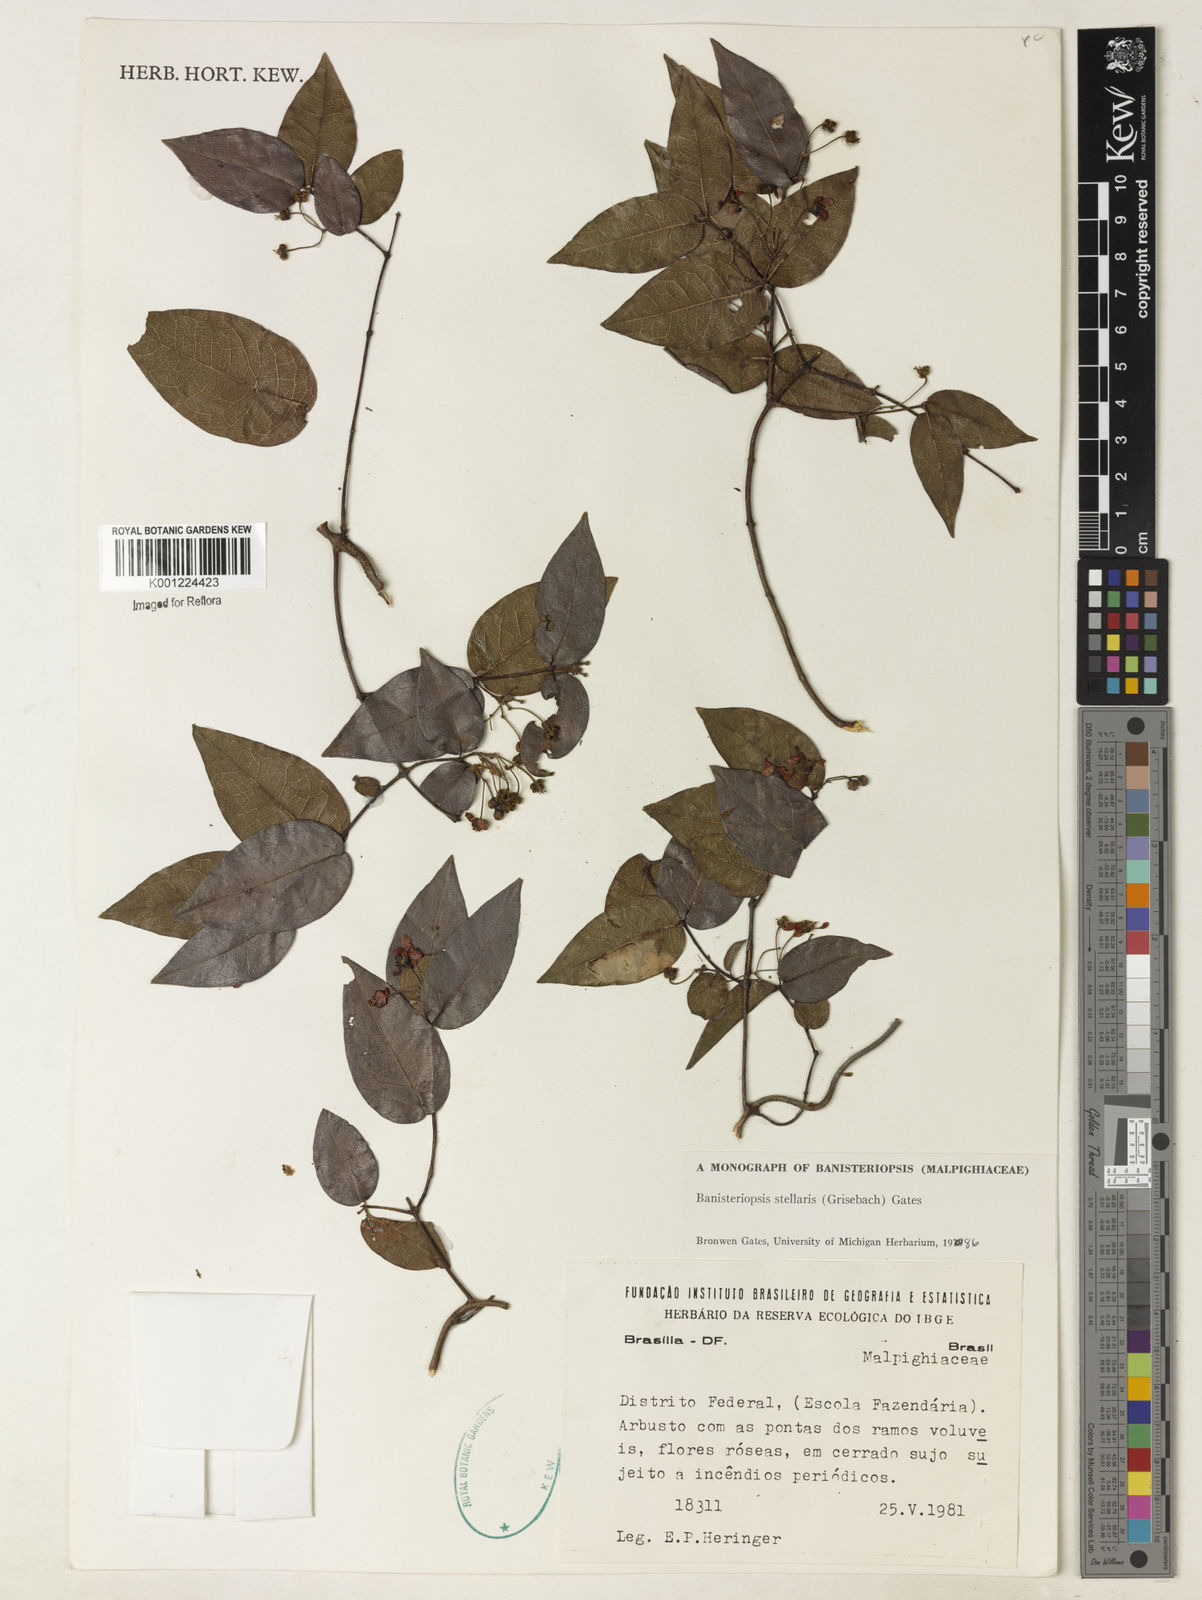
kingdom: Plantae
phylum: Tracheophyta
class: Magnoliopsida
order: Malpighiales
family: Malpighiaceae
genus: Banisteriopsis
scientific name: Banisteriopsis stellaris
